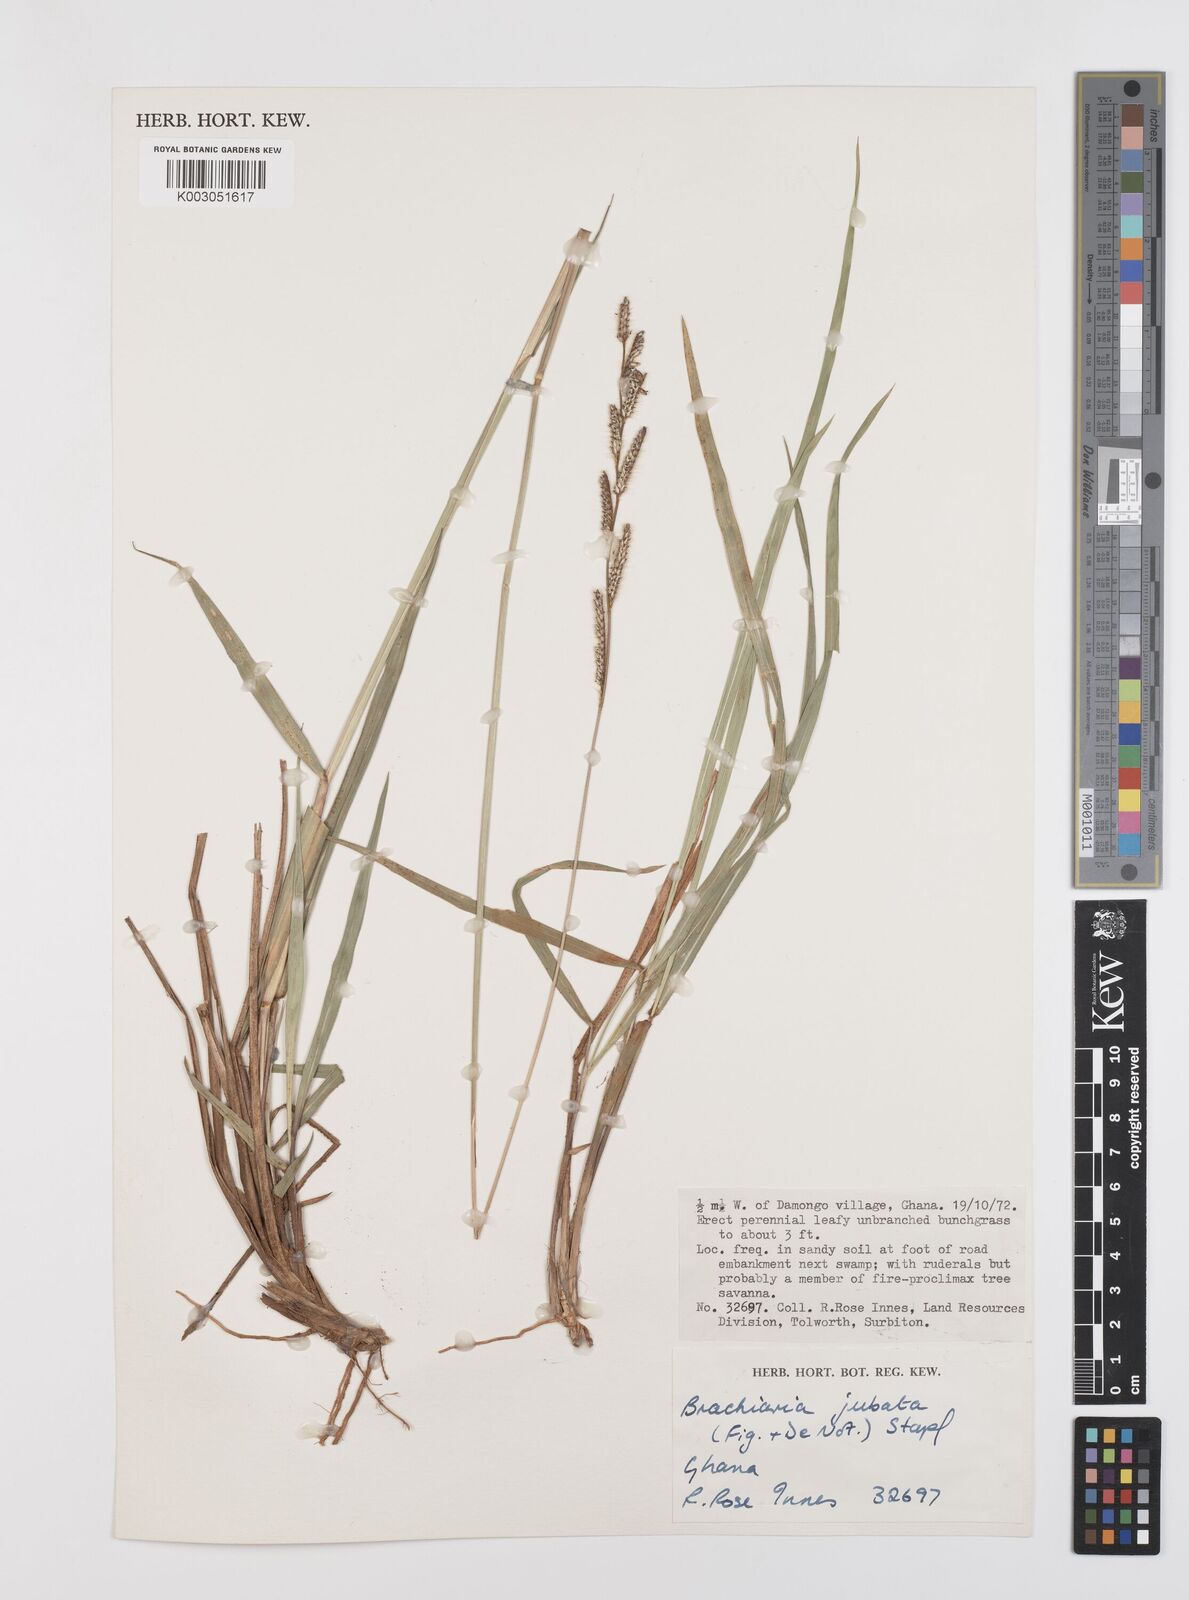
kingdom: Plantae
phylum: Tracheophyta
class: Liliopsida
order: Poales
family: Poaceae
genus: Urochloa
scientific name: Urochloa jubata
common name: Buffalograss
